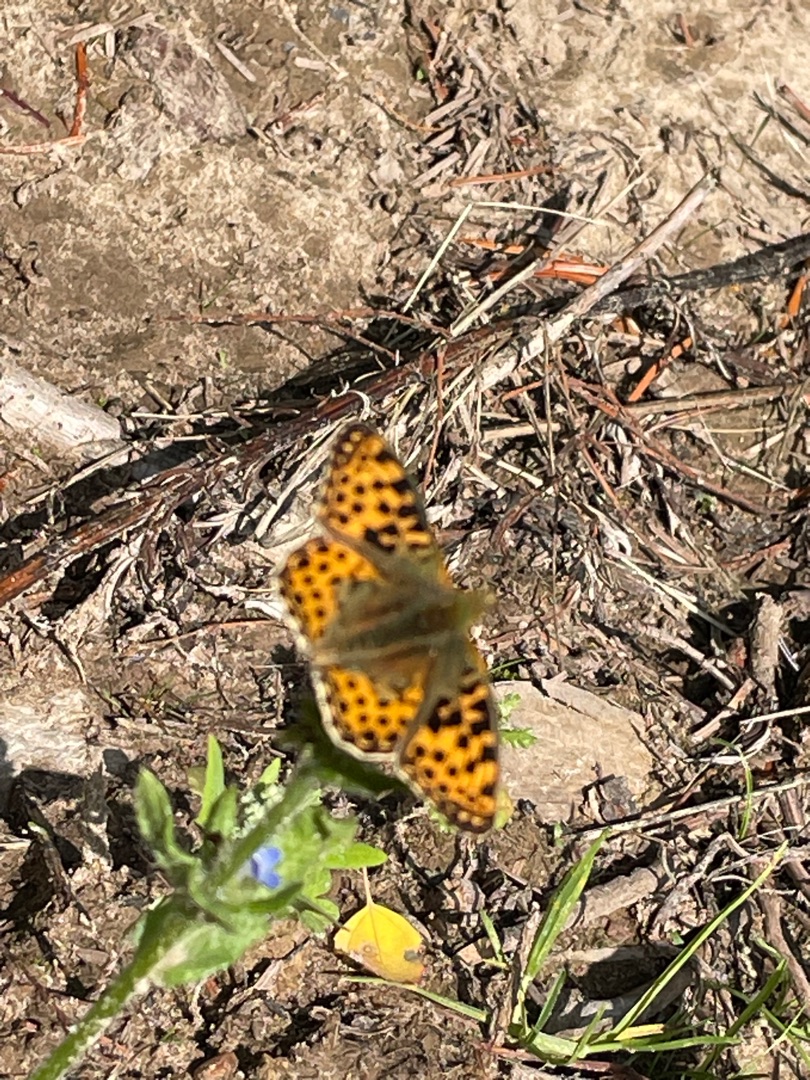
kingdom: Animalia
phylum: Arthropoda
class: Insecta
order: Lepidoptera
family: Nymphalidae
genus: Issoria
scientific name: Issoria lathonia
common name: Storplettet perlemorsommerfugl
